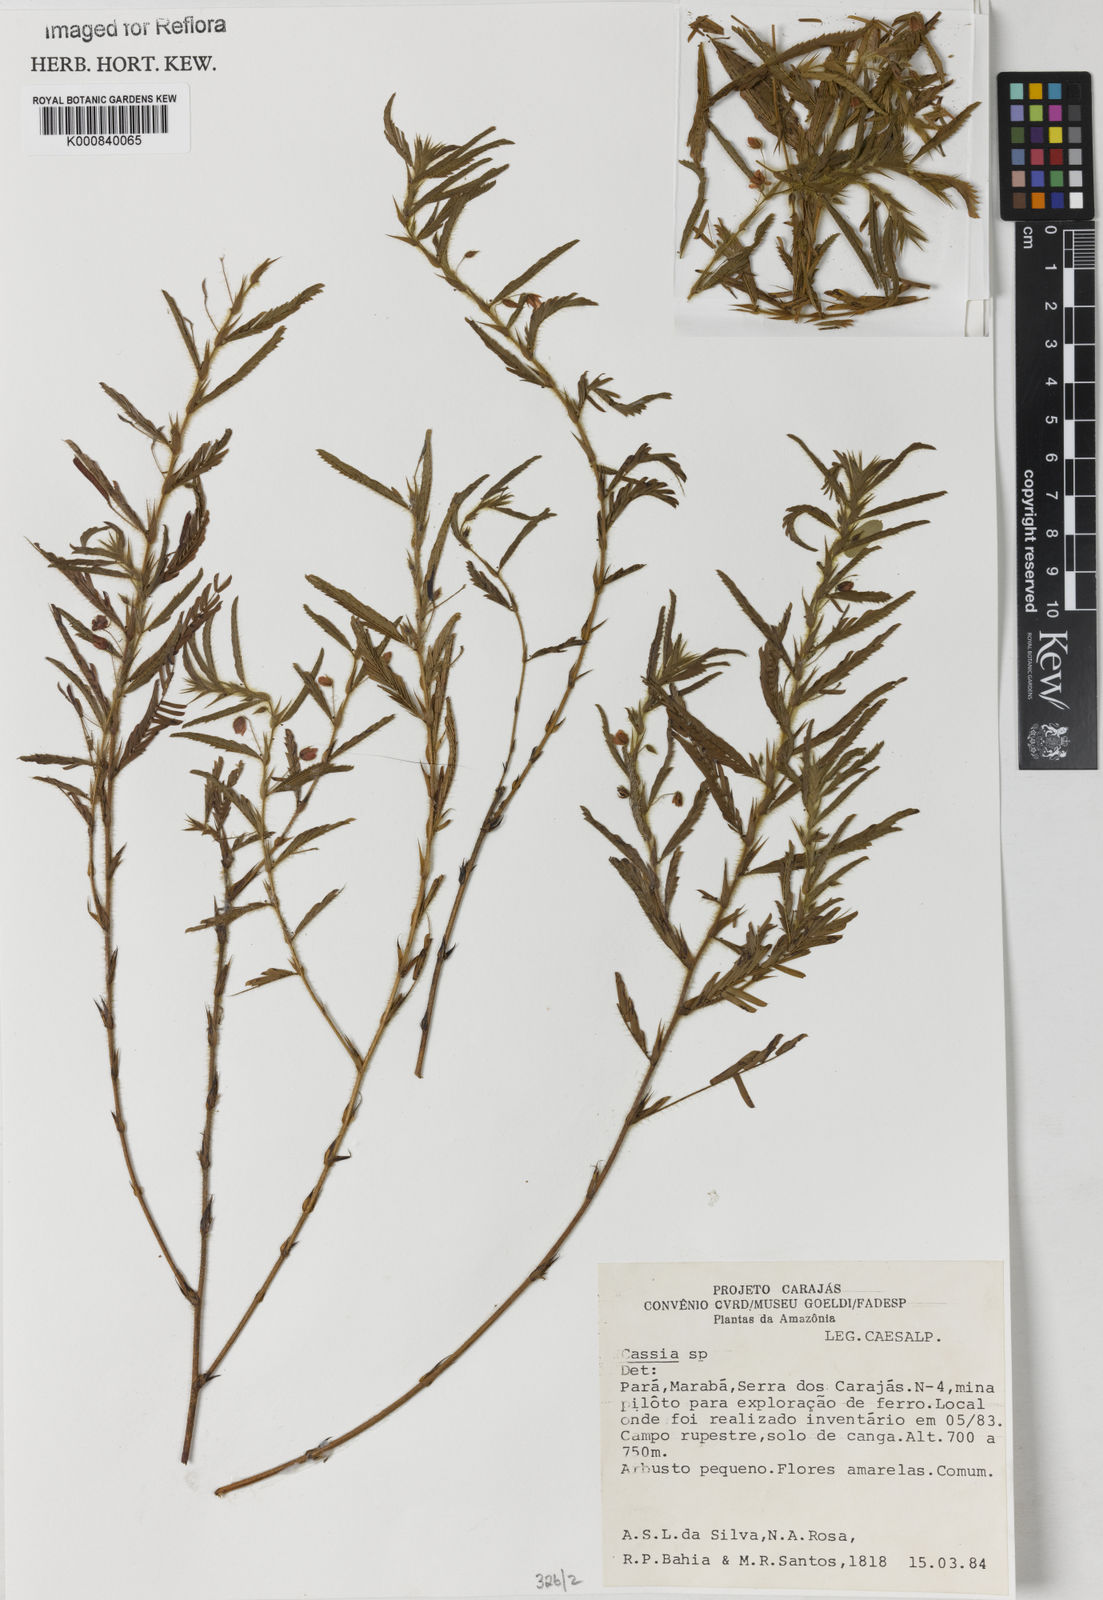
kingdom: Plantae
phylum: Tracheophyta
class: Magnoliopsida
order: Fabales
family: Fabaceae
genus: Chamaecrista
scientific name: Chamaecrista
